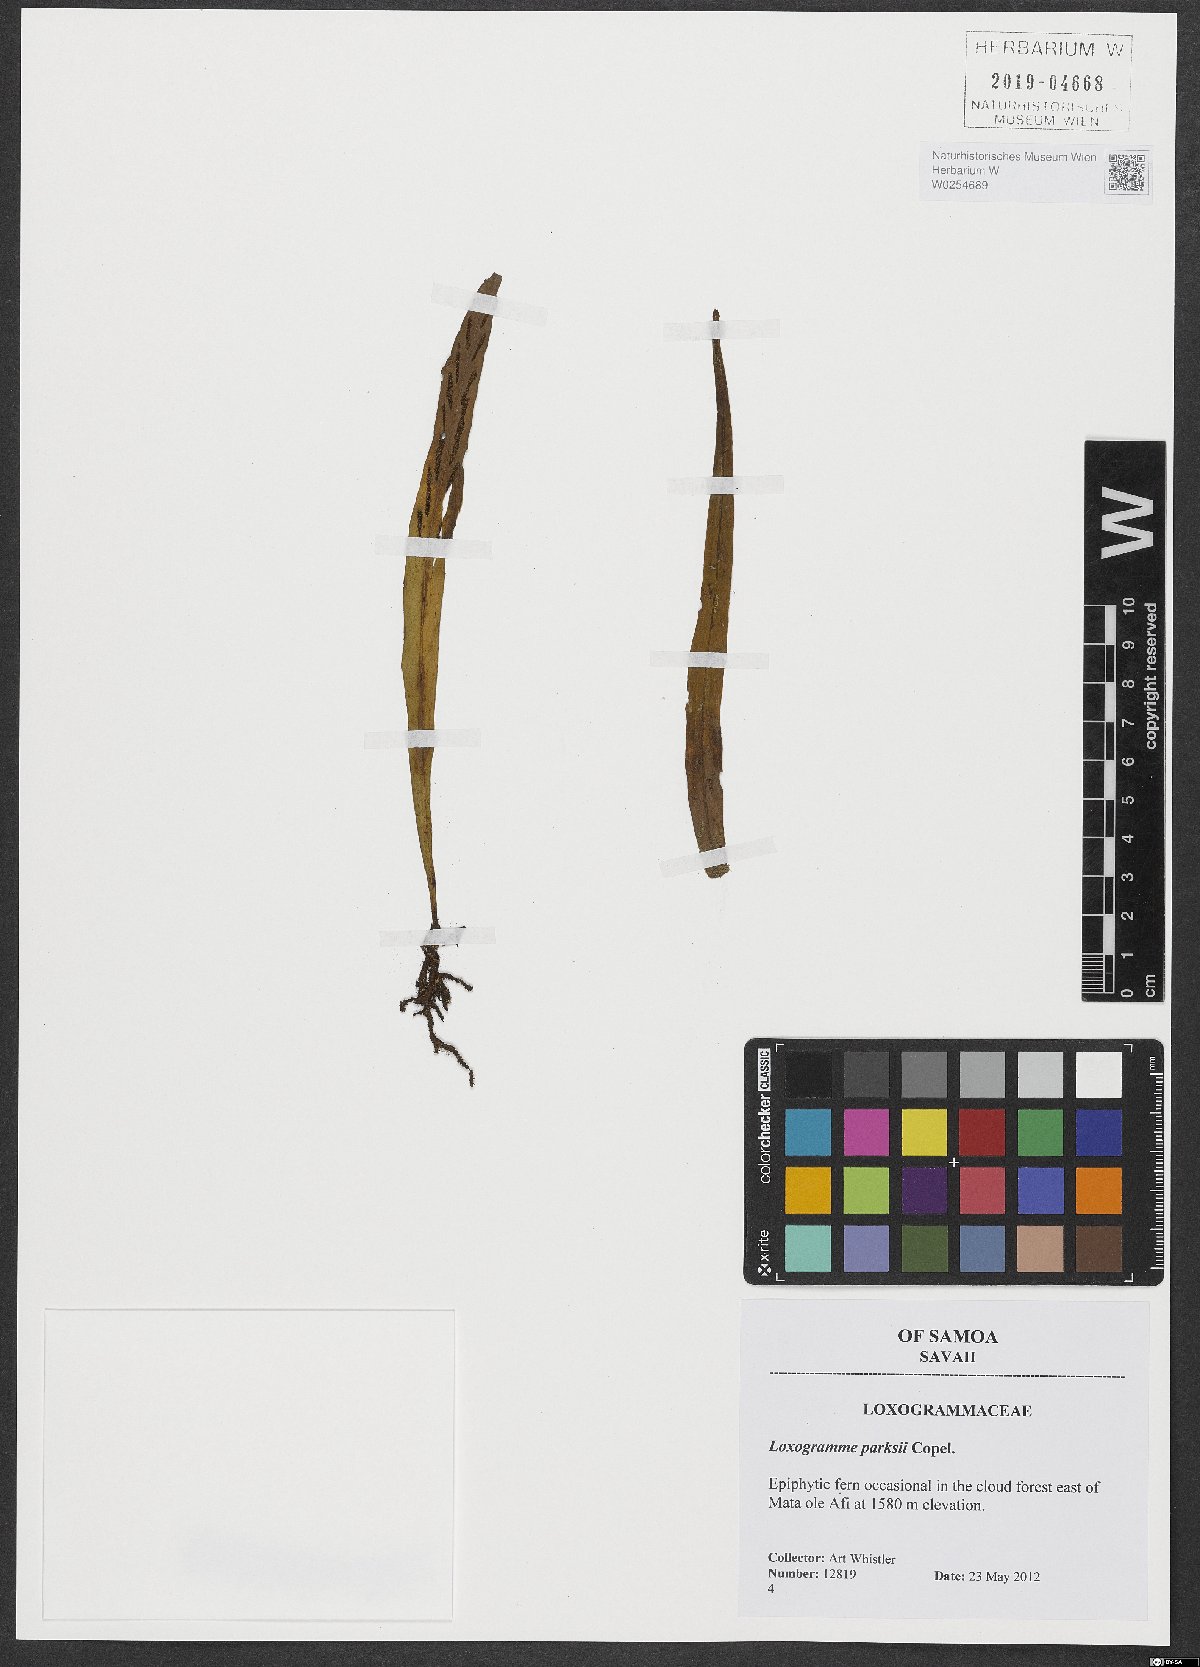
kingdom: Plantae
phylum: Tracheophyta
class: Polypodiopsida
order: Polypodiales
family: Polypodiaceae
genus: Loxogramme
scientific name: Loxogramme parksii
